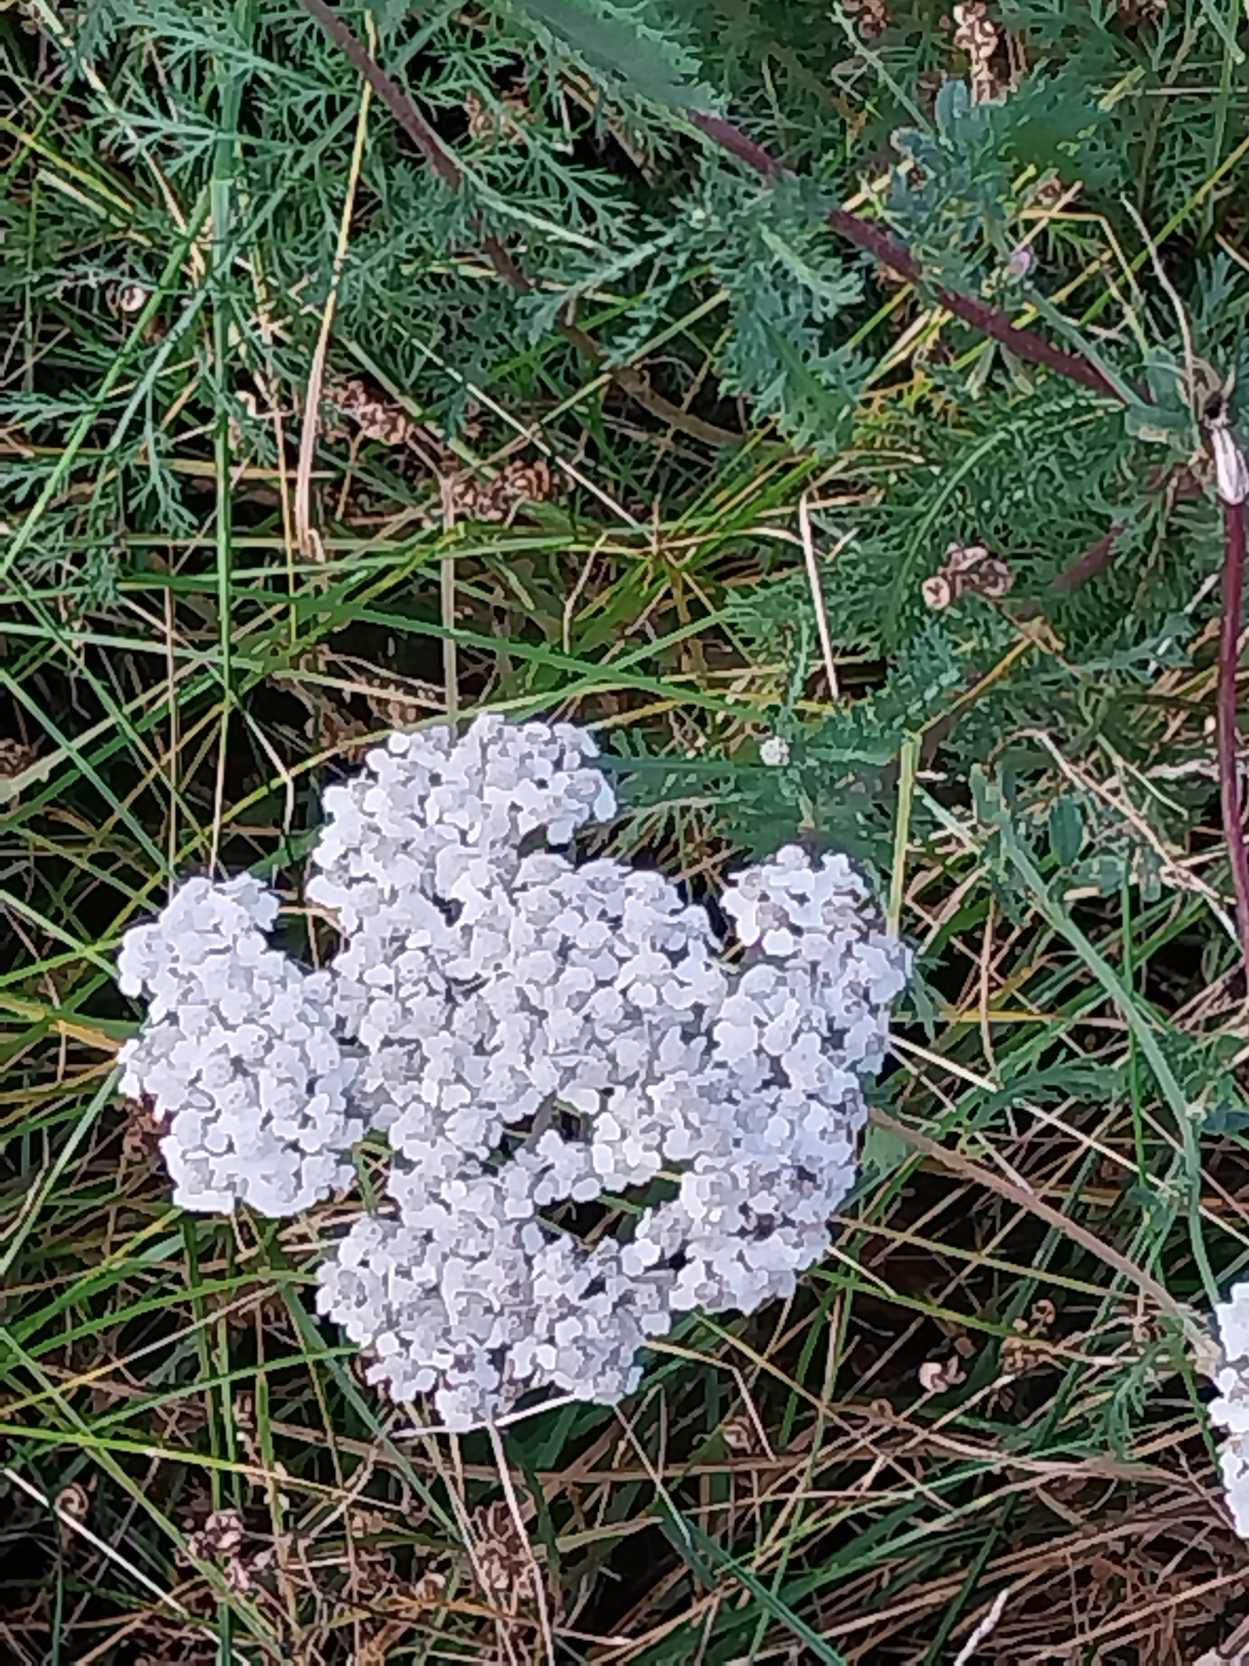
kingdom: Plantae
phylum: Tracheophyta
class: Magnoliopsida
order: Asterales
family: Asteraceae
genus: Achillea
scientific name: Achillea millefolium
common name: Almindelig røllike
